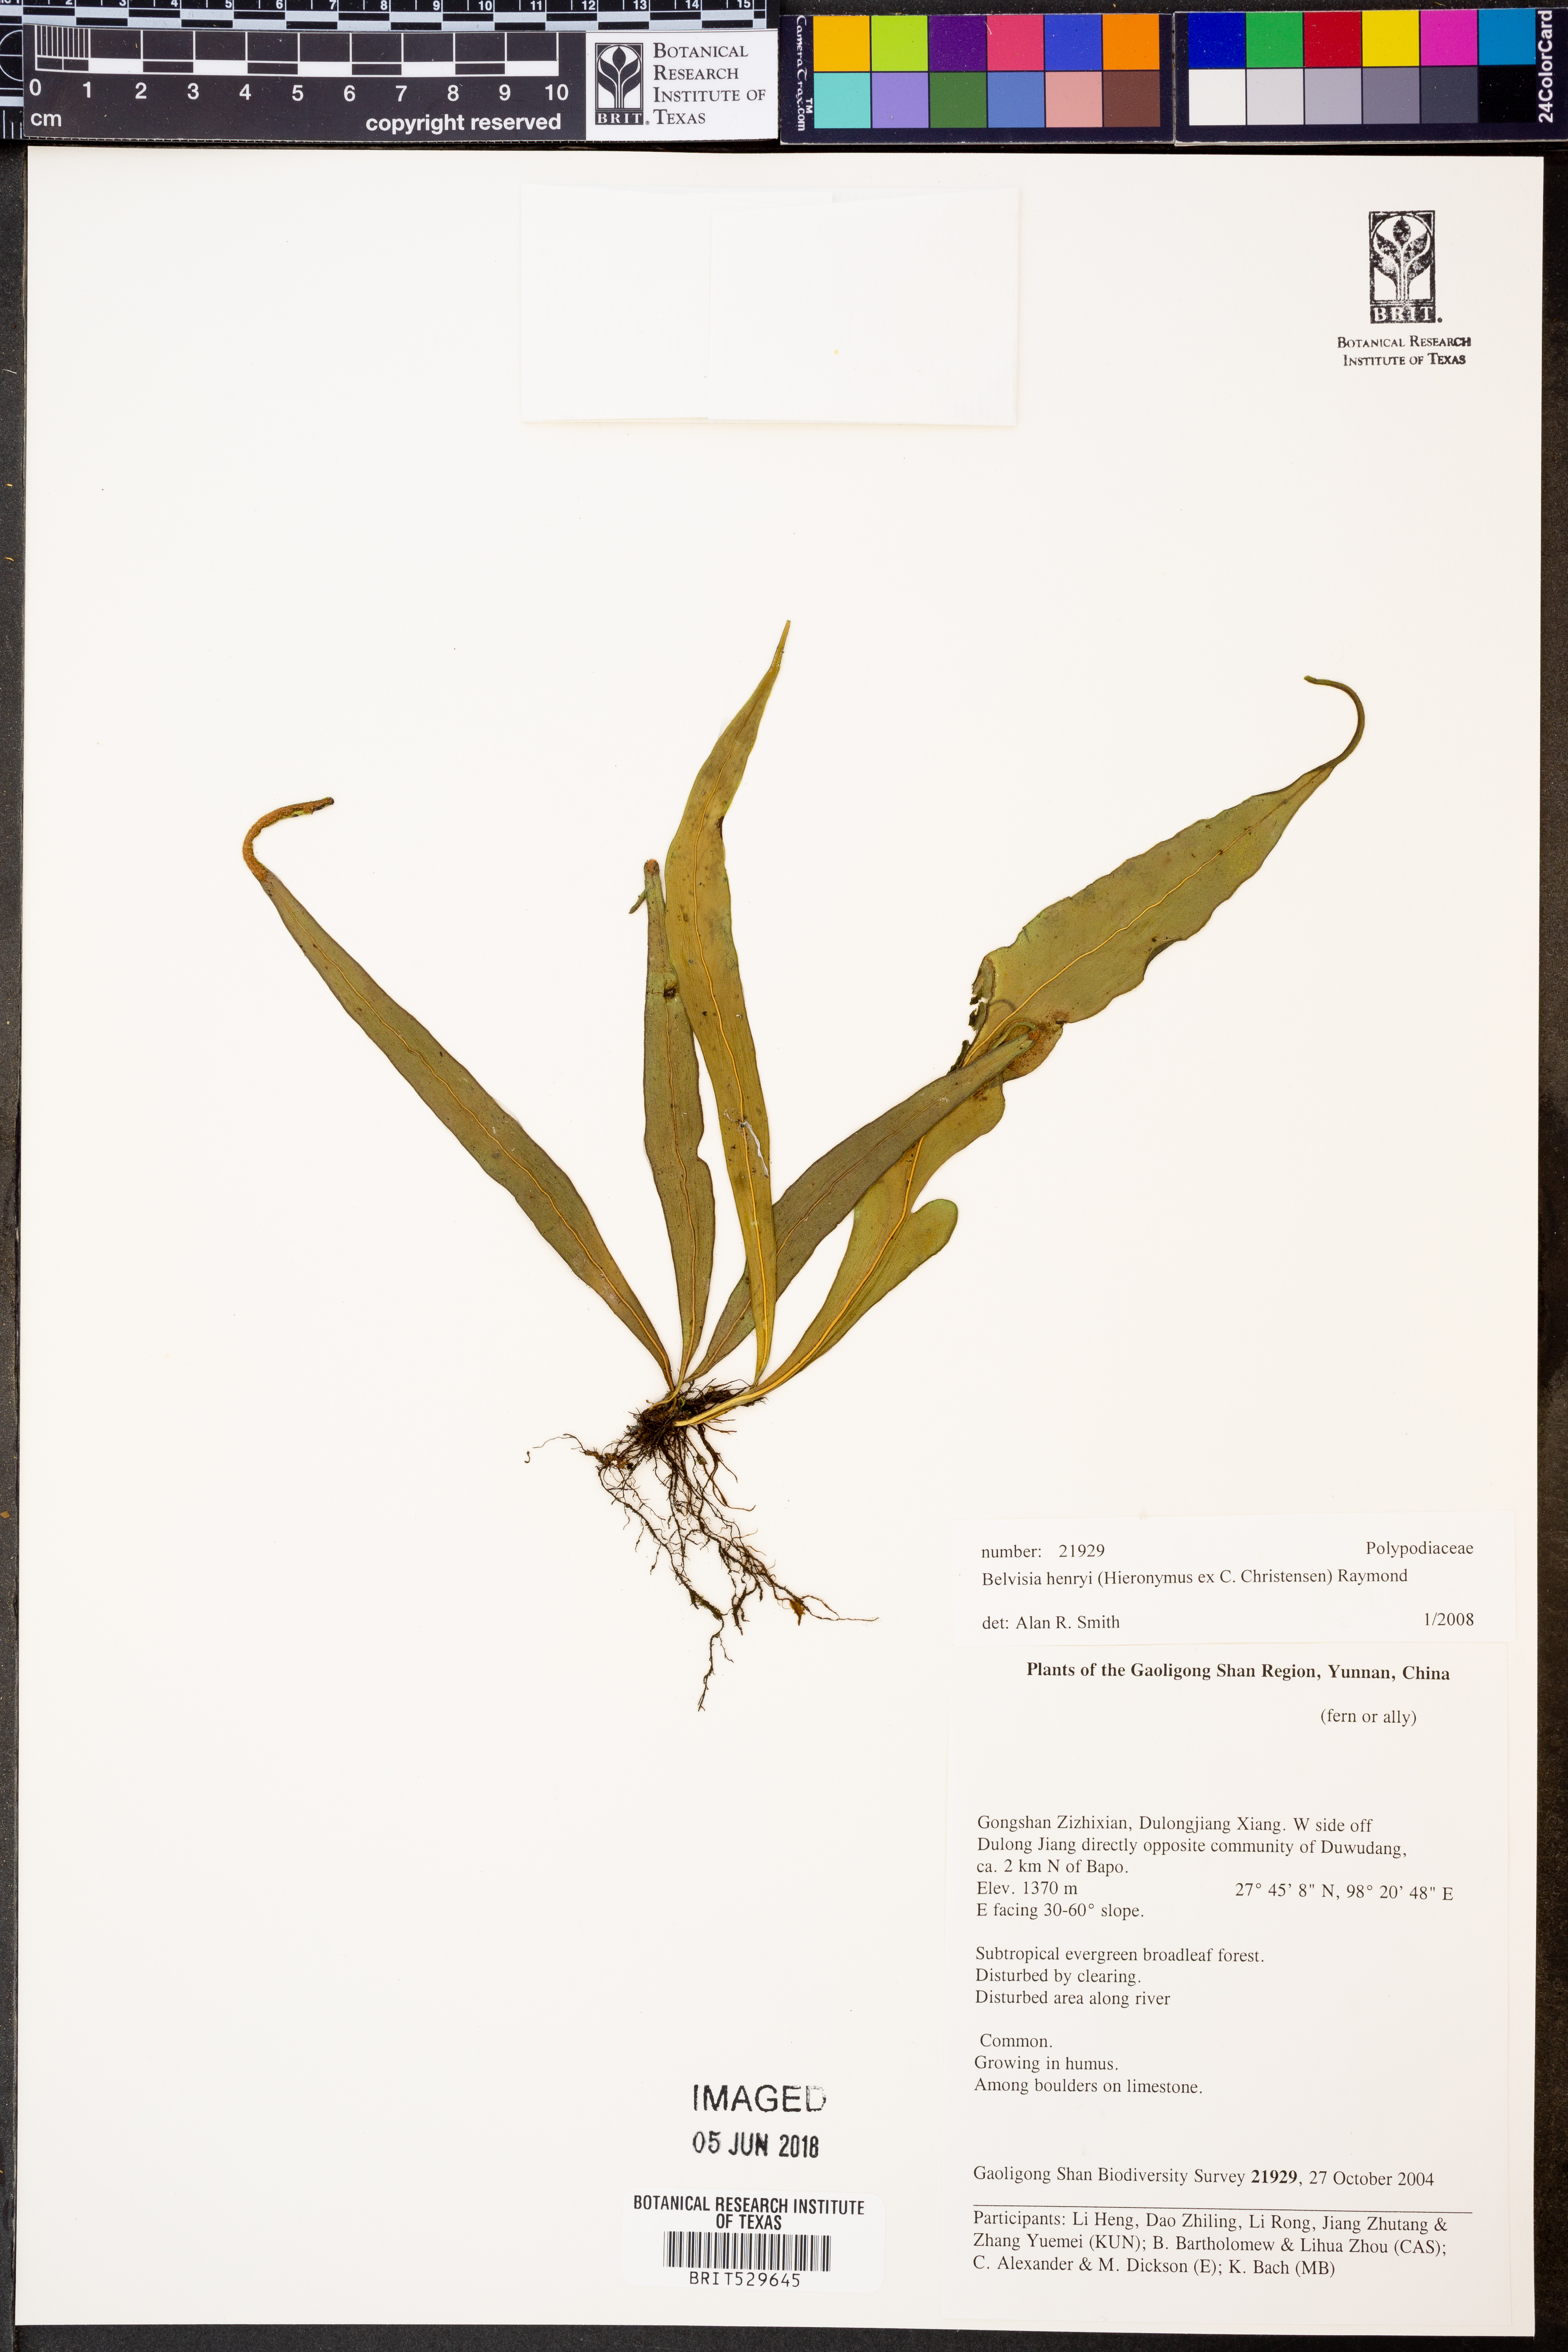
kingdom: Plantae
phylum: Tracheophyta
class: Polypodiopsida
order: Polypodiales
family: Polypodiaceae
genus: Lepisorus
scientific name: Lepisorus henryi
